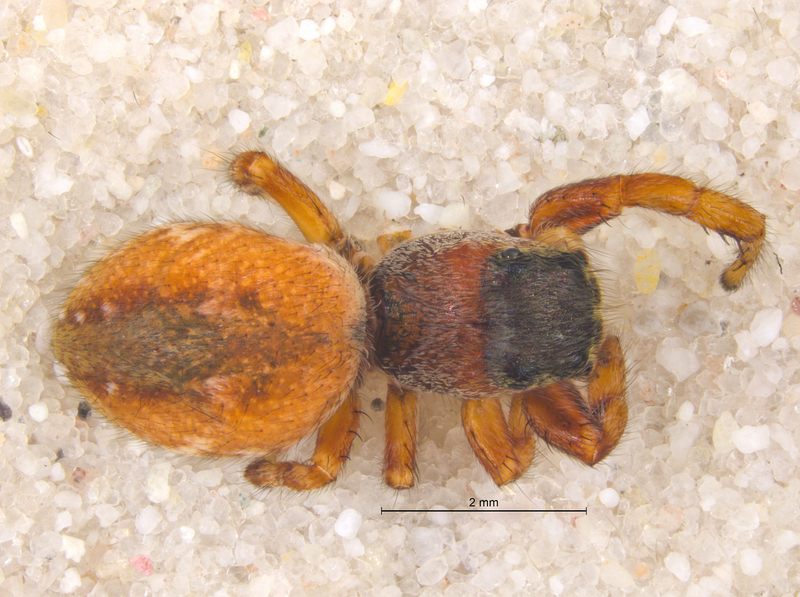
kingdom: Animalia
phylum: Arthropoda
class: Arachnida
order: Araneae
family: Salticidae
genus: Dendryphantes
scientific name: Dendryphantes rudis
